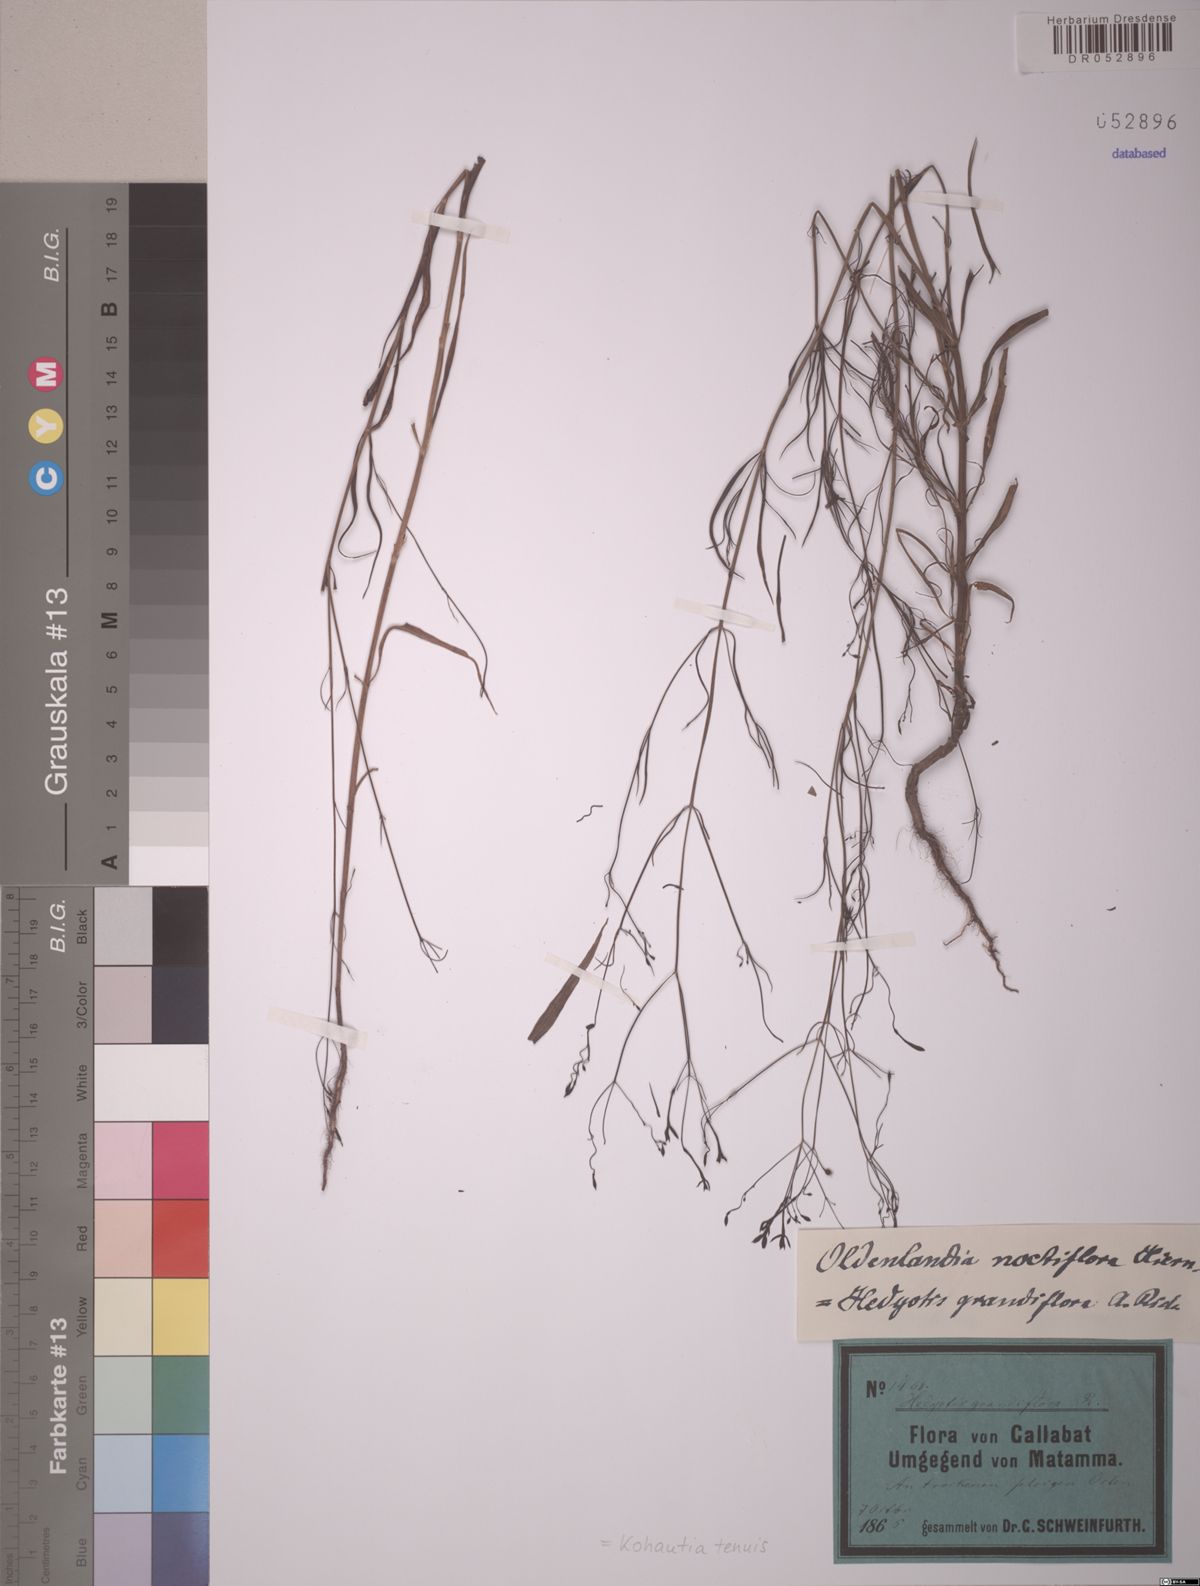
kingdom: Plantae
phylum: Tracheophyta
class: Magnoliopsida
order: Gentianales
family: Rubiaceae
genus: Kohautia
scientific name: Kohautia tenuis
